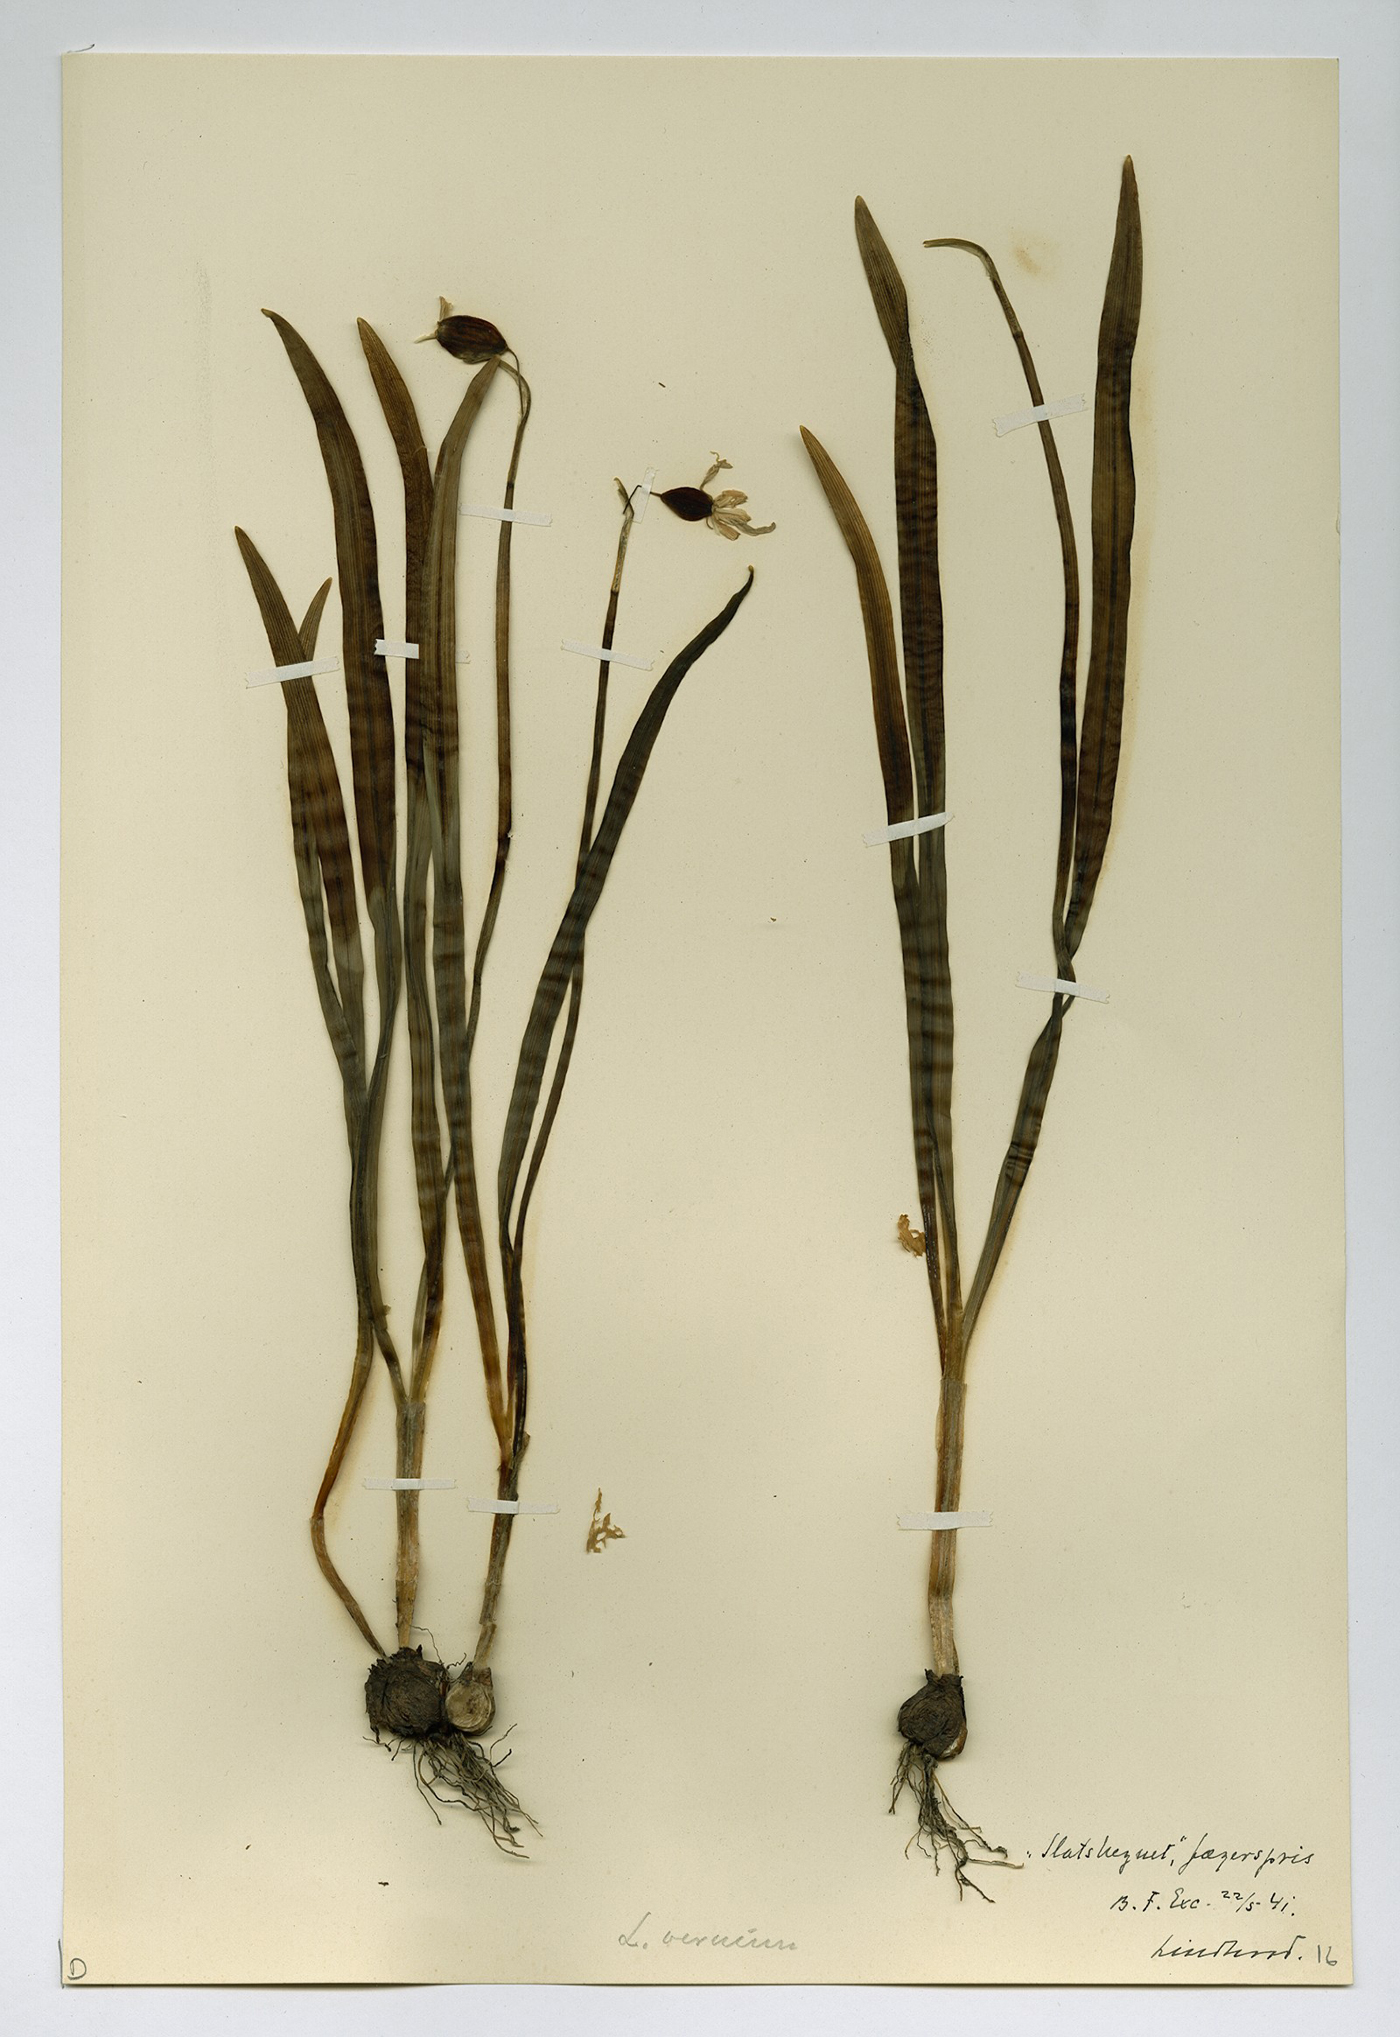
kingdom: Plantae
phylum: Tracheophyta
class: Liliopsida
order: Asparagales
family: Amaryllidaceae
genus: Galanthus
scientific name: Galanthus nivalis
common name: Snowdrop
